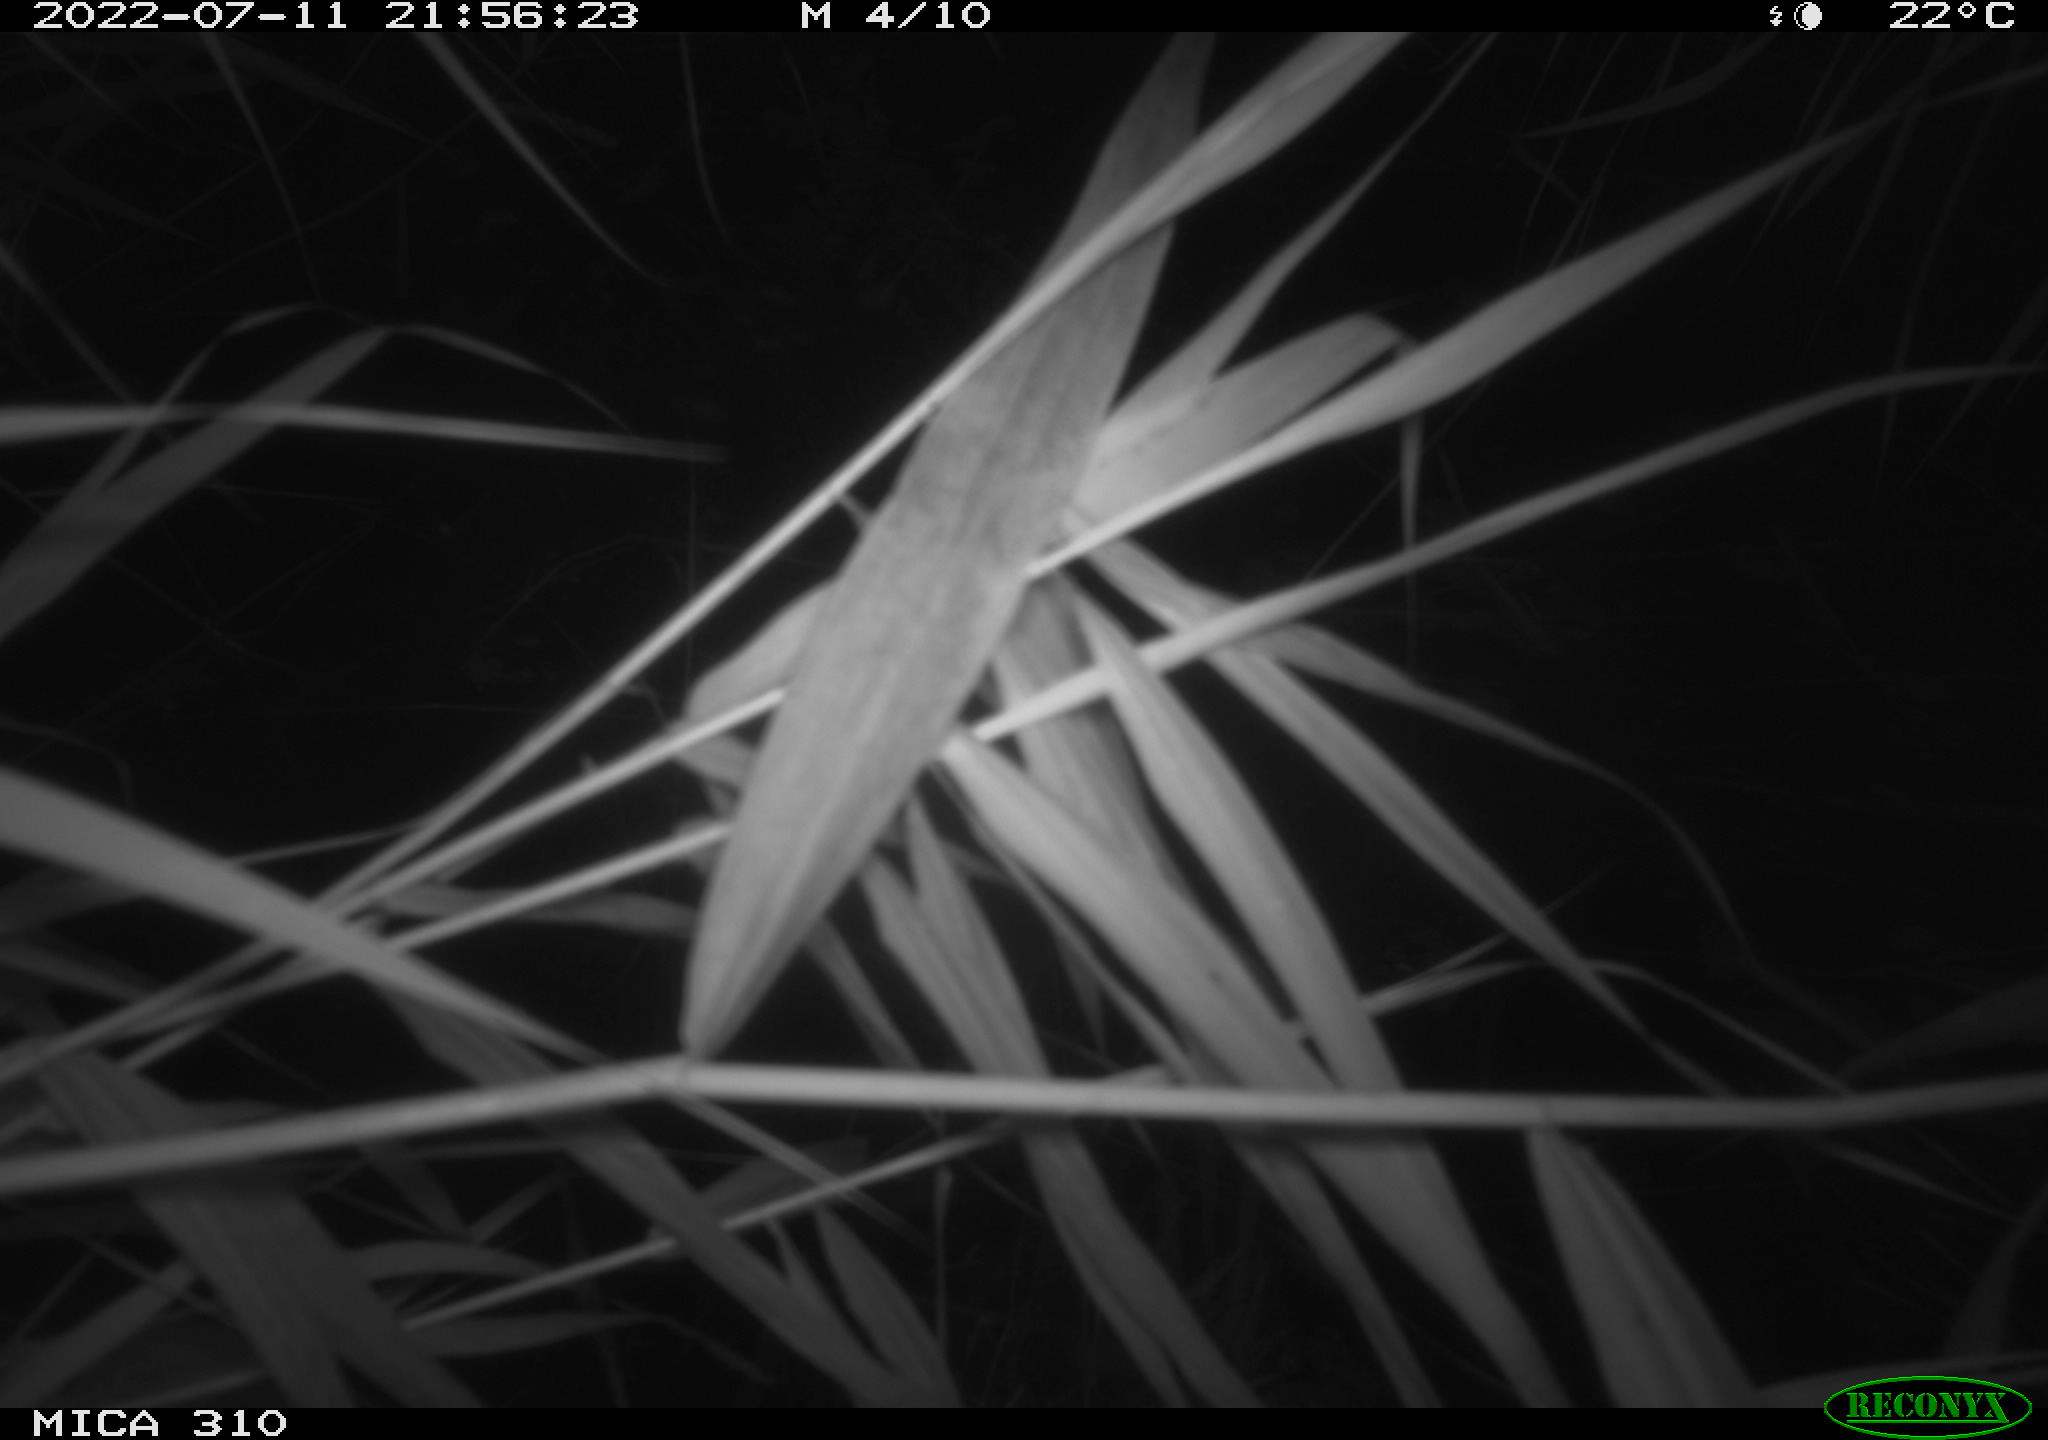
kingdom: Animalia
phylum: Chordata
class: Aves
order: Anseriformes
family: Anatidae
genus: Anas
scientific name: Anas platyrhynchos
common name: Mallard
